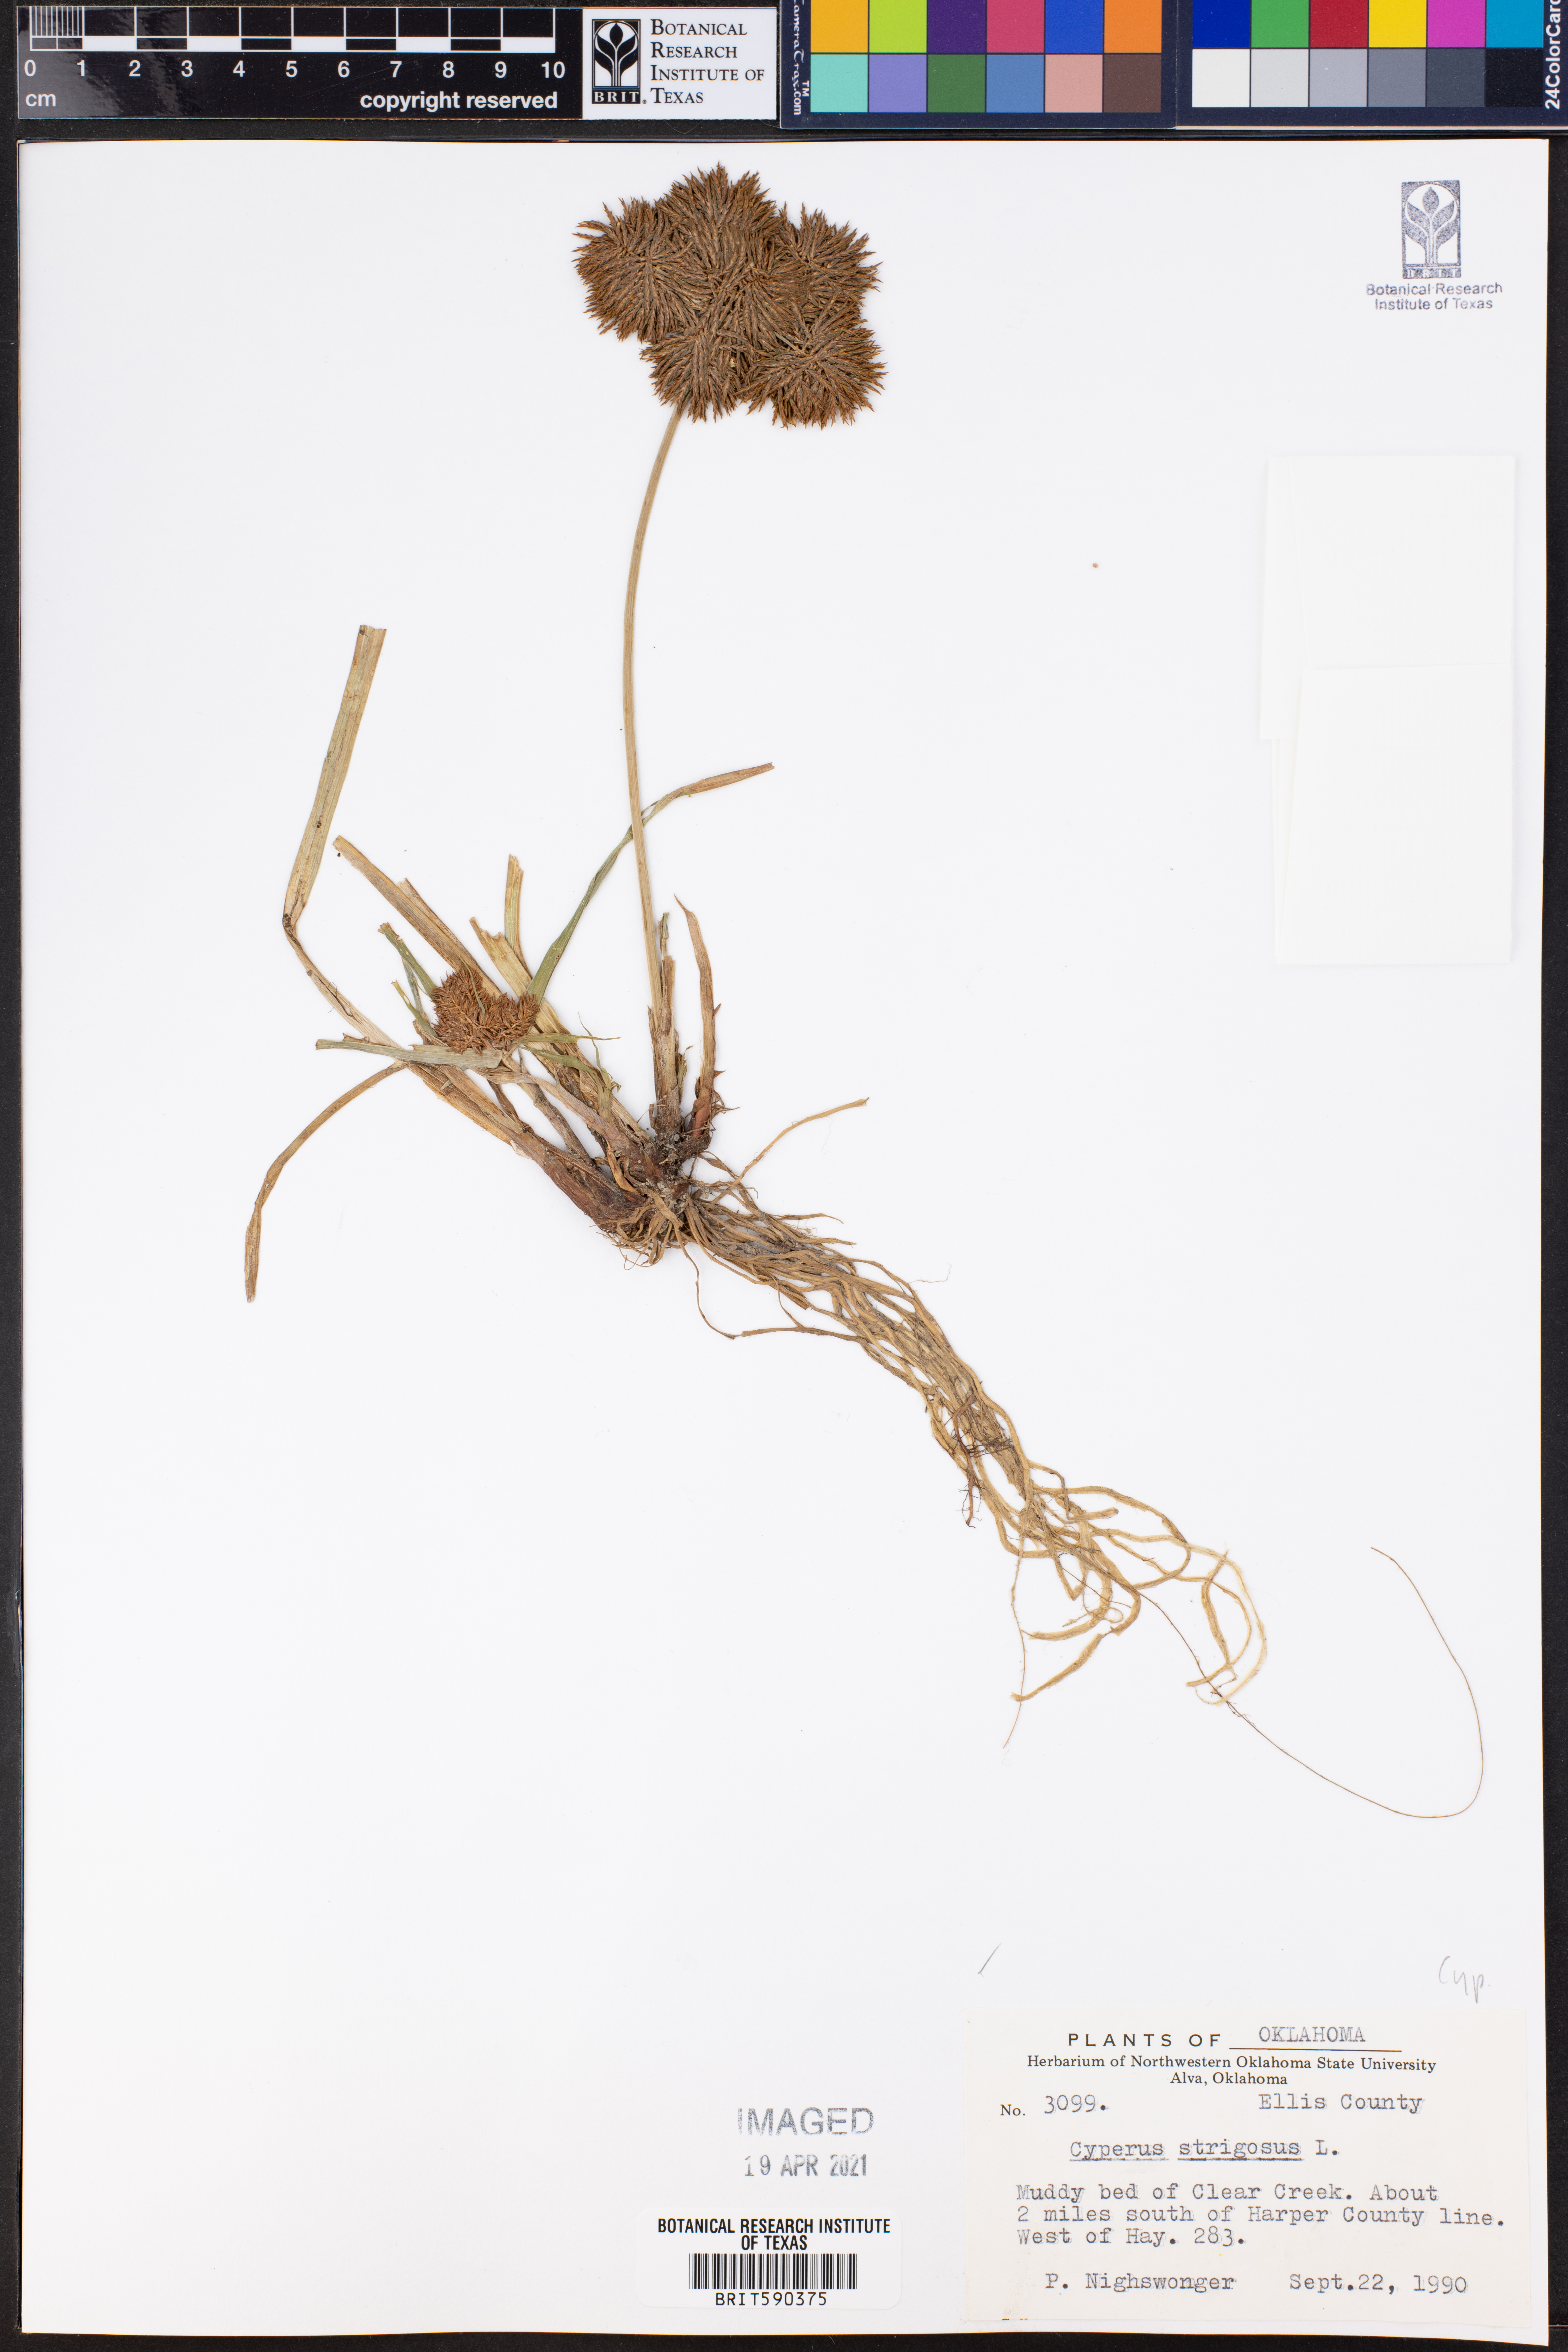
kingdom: Plantae
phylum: Tracheophyta
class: Liliopsida
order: Poales
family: Cyperaceae
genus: Cyperus
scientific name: Cyperus strigosus
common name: False nutsedge
